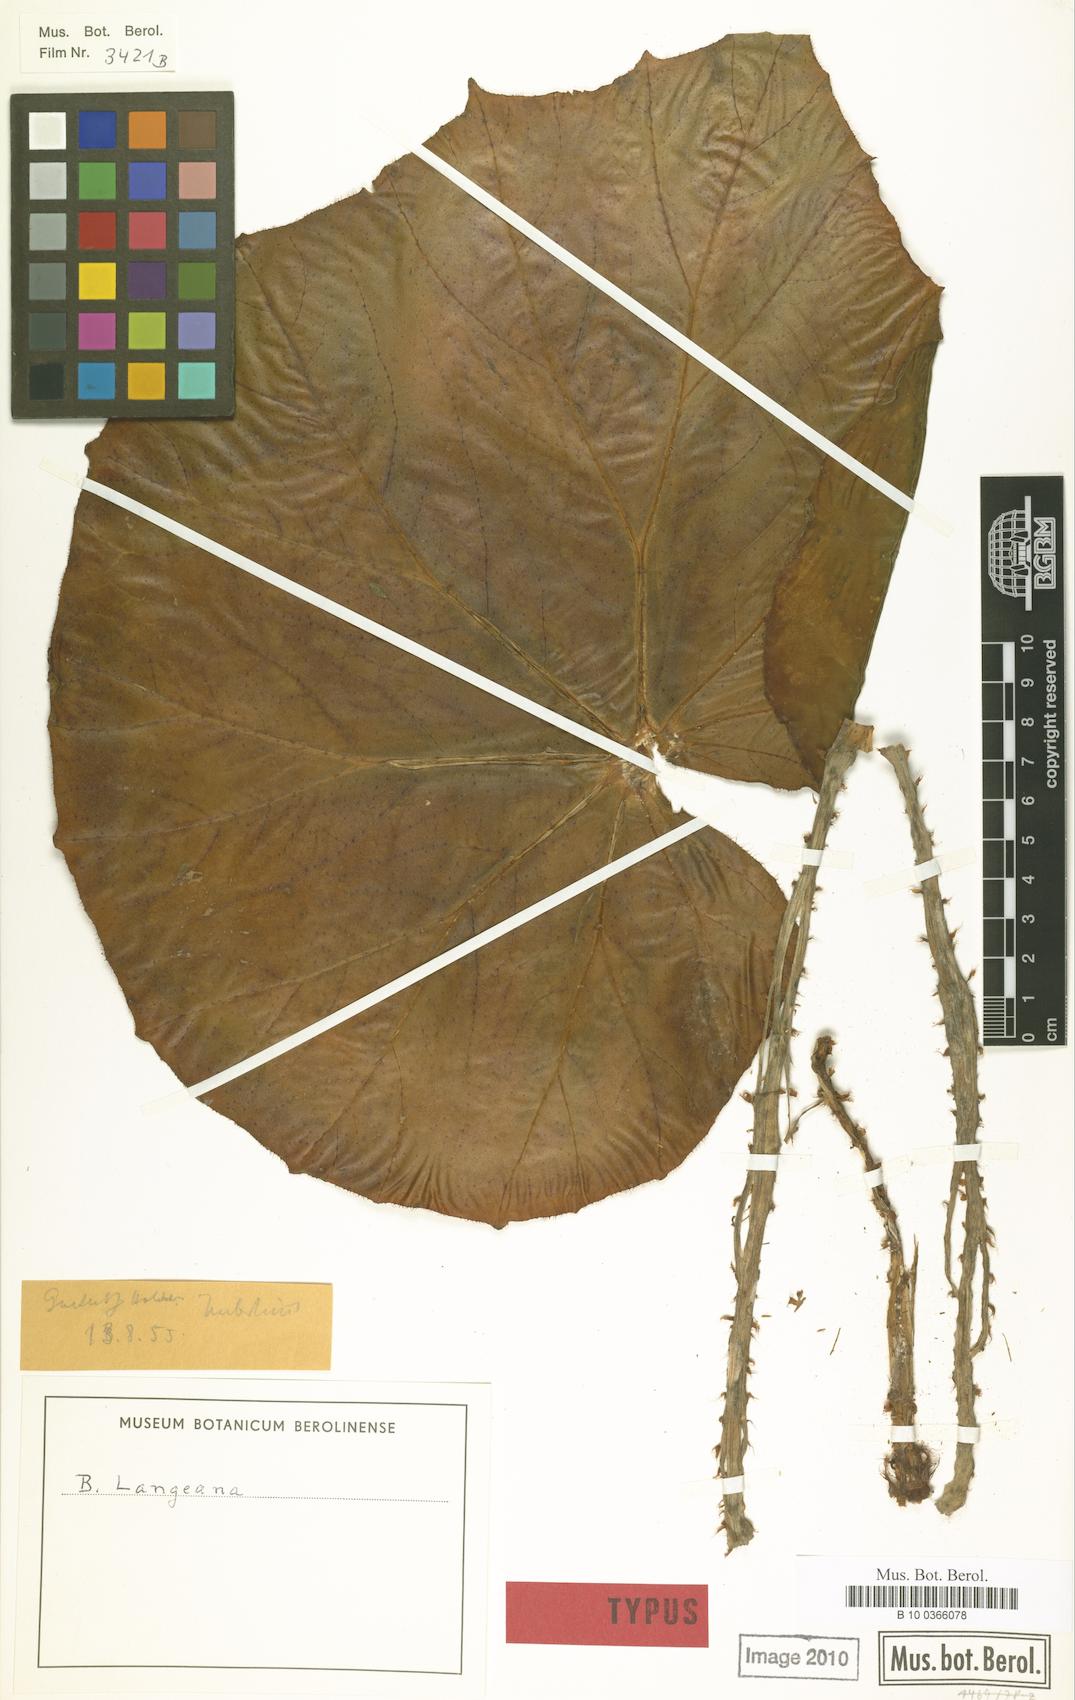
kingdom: Plantae
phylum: Tracheophyta
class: Magnoliopsida
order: Cucurbitales
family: Begoniaceae
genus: Begonia
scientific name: Begonia langeana
